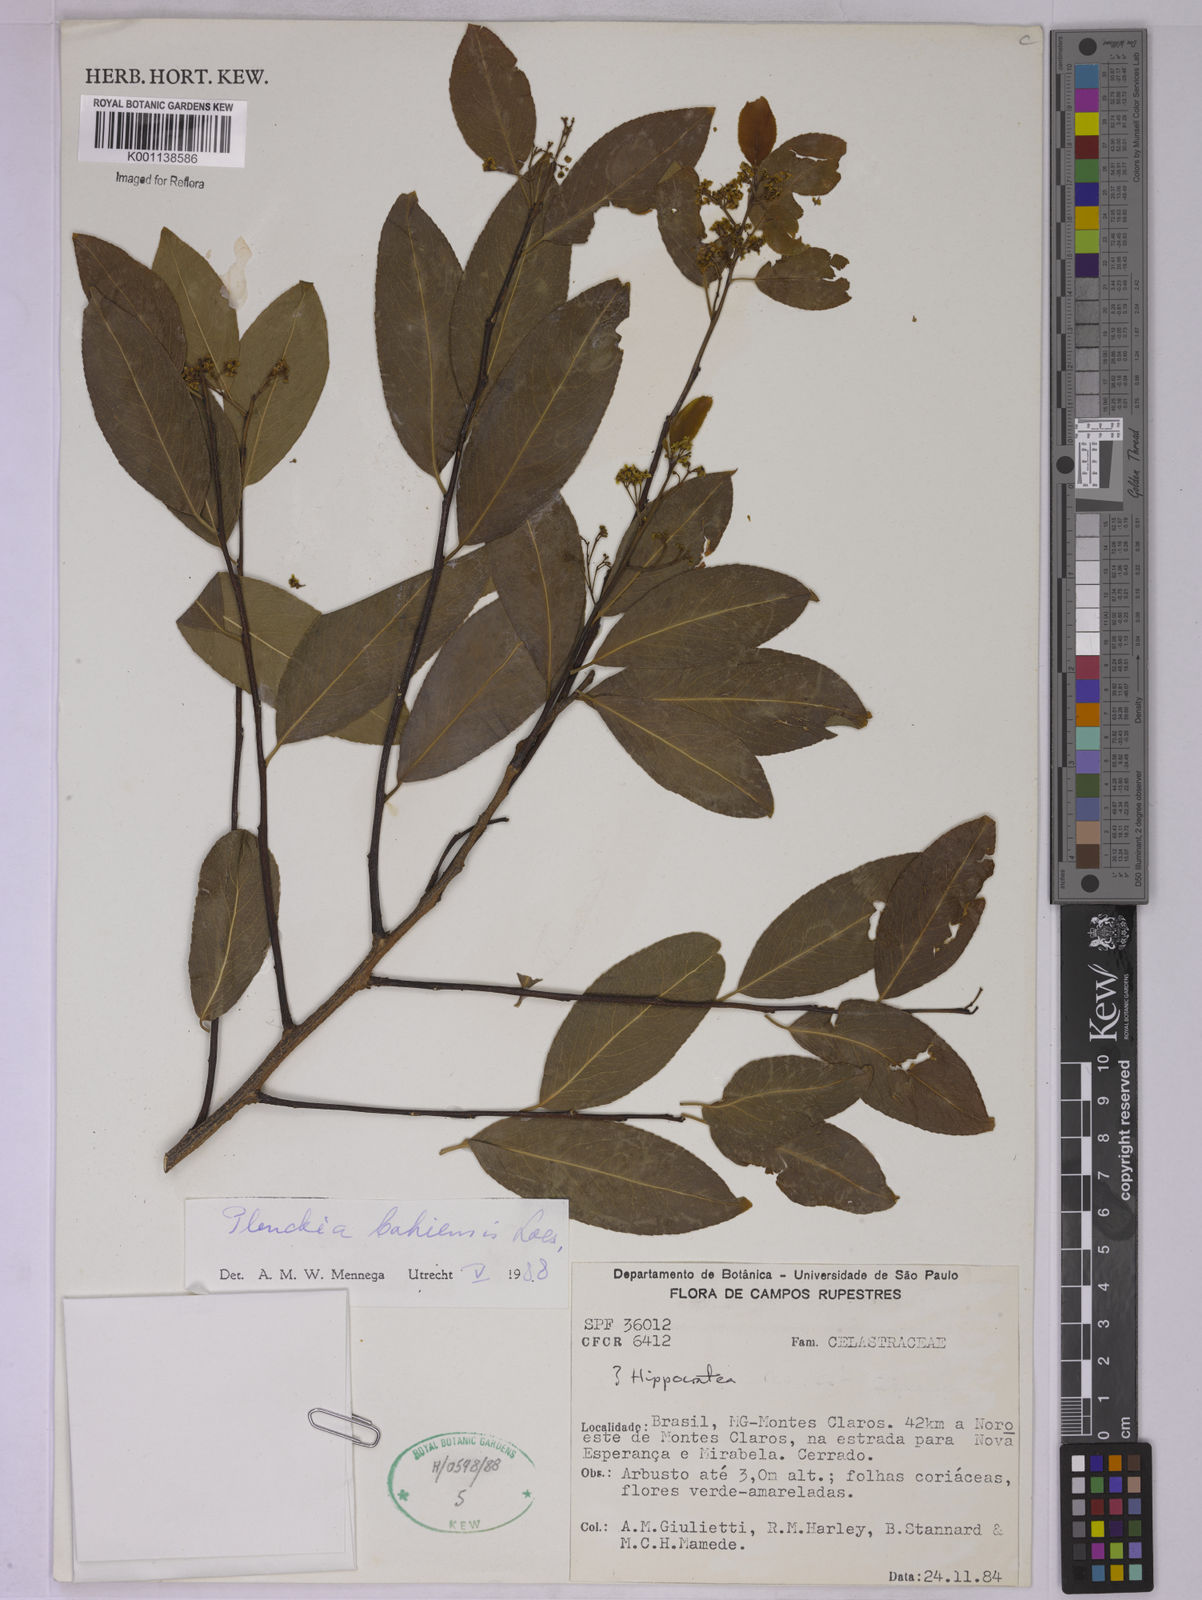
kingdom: Plantae
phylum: Tracheophyta
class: Magnoliopsida
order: Celastrales
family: Celastraceae
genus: Plenckia
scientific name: Plenckia populnea
